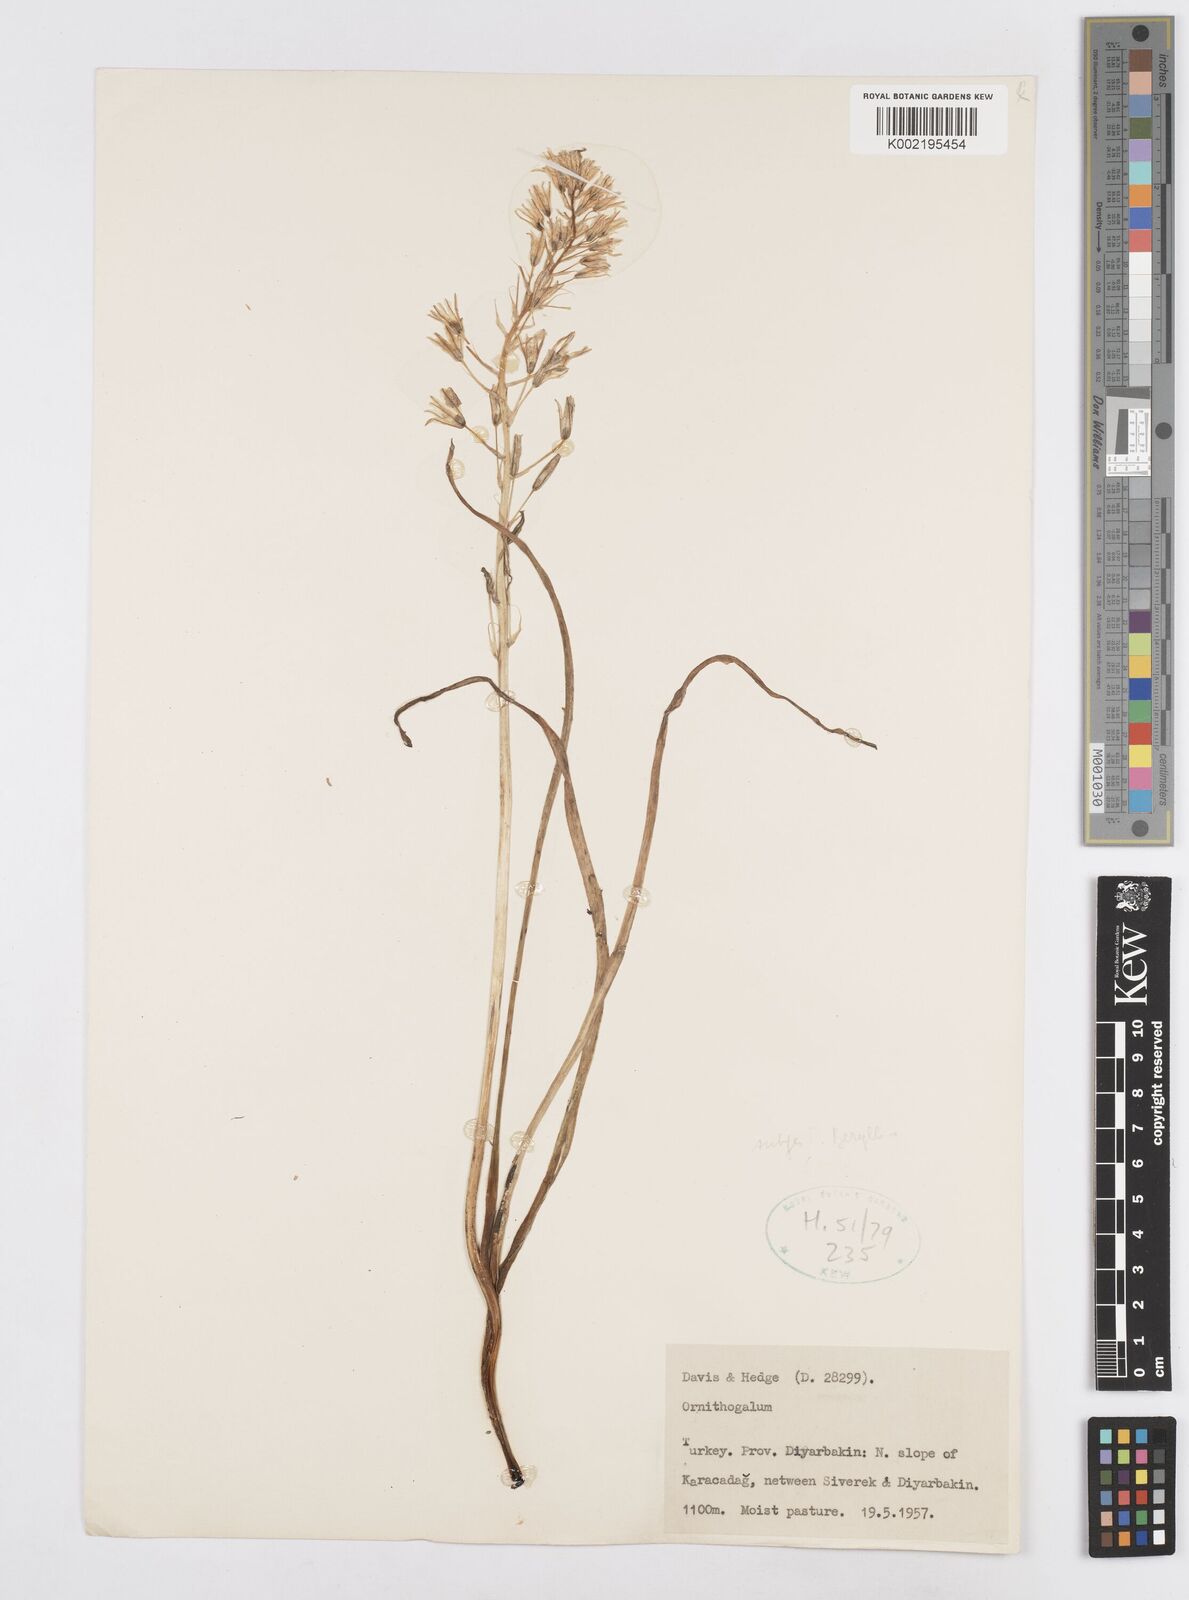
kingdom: Plantae
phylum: Tracheophyta
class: Liliopsida
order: Asparagales
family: Asparagaceae
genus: Ornithogalum
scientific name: Ornithogalum
